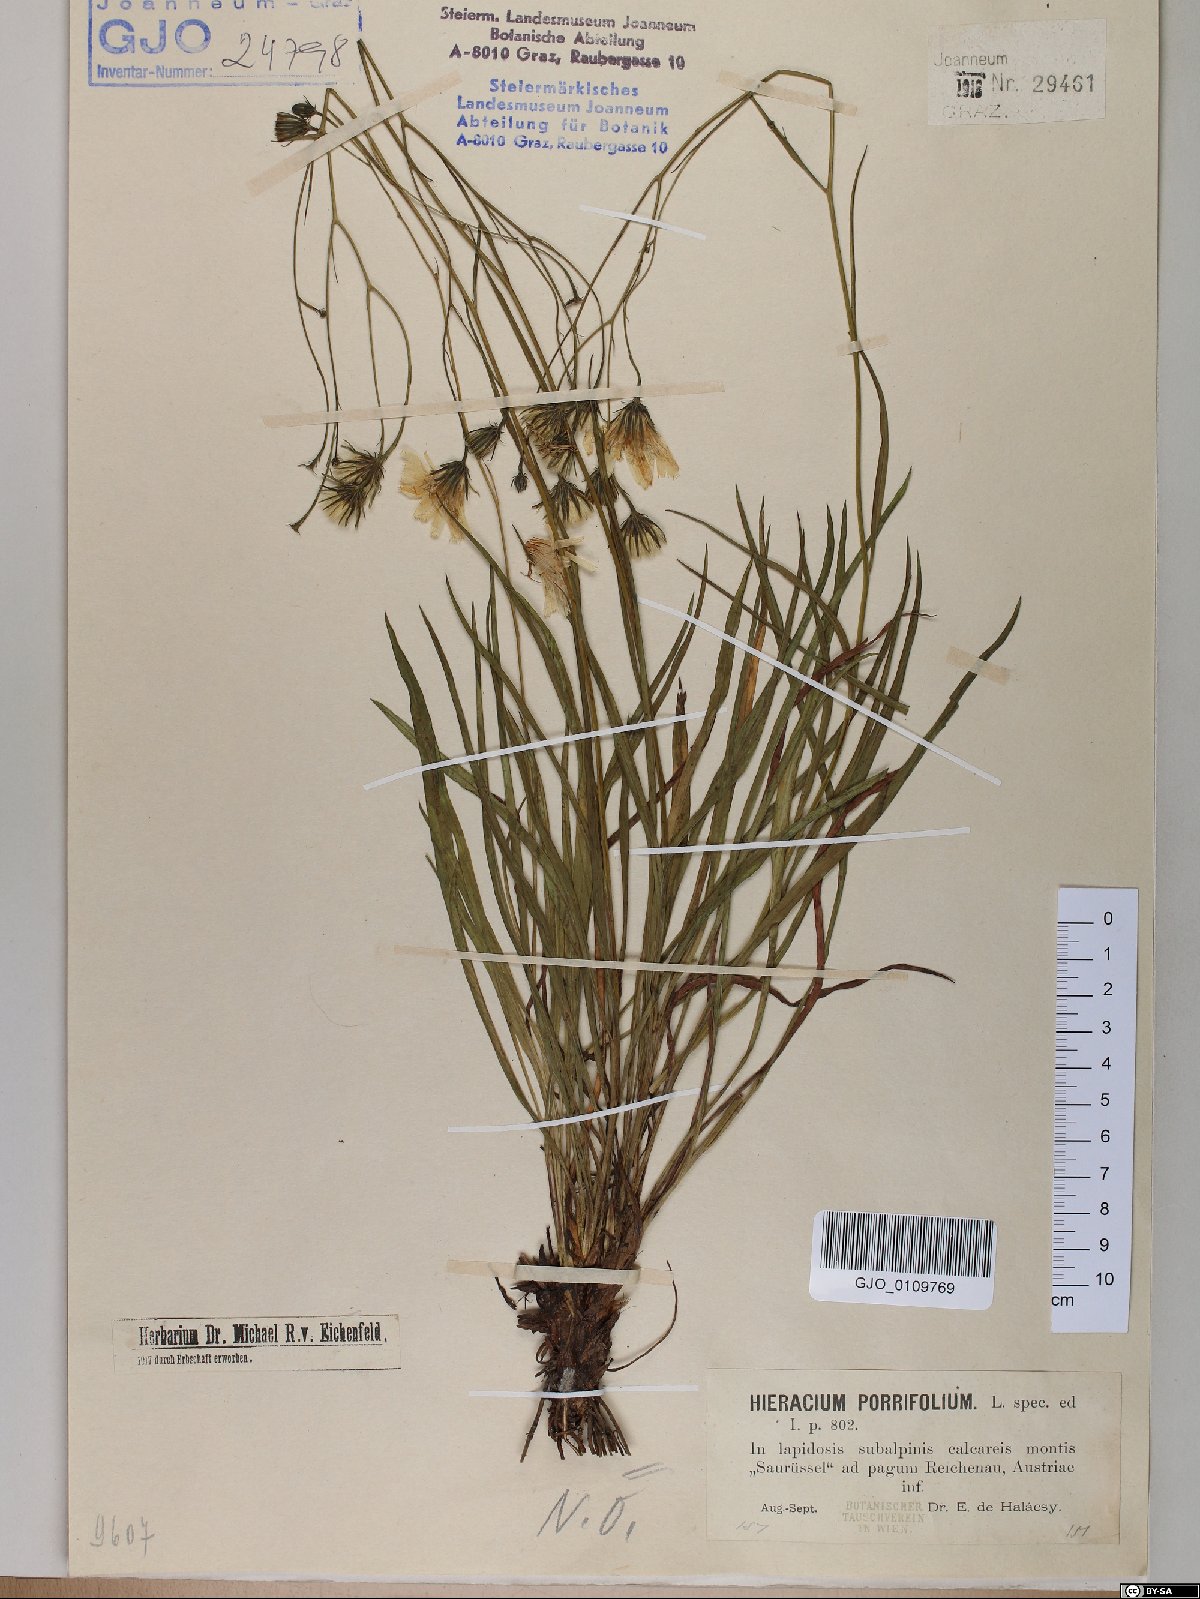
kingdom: Plantae
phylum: Tracheophyta
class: Magnoliopsida
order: Asterales
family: Asteraceae
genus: Hieracium
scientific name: Hieracium porrifolium
